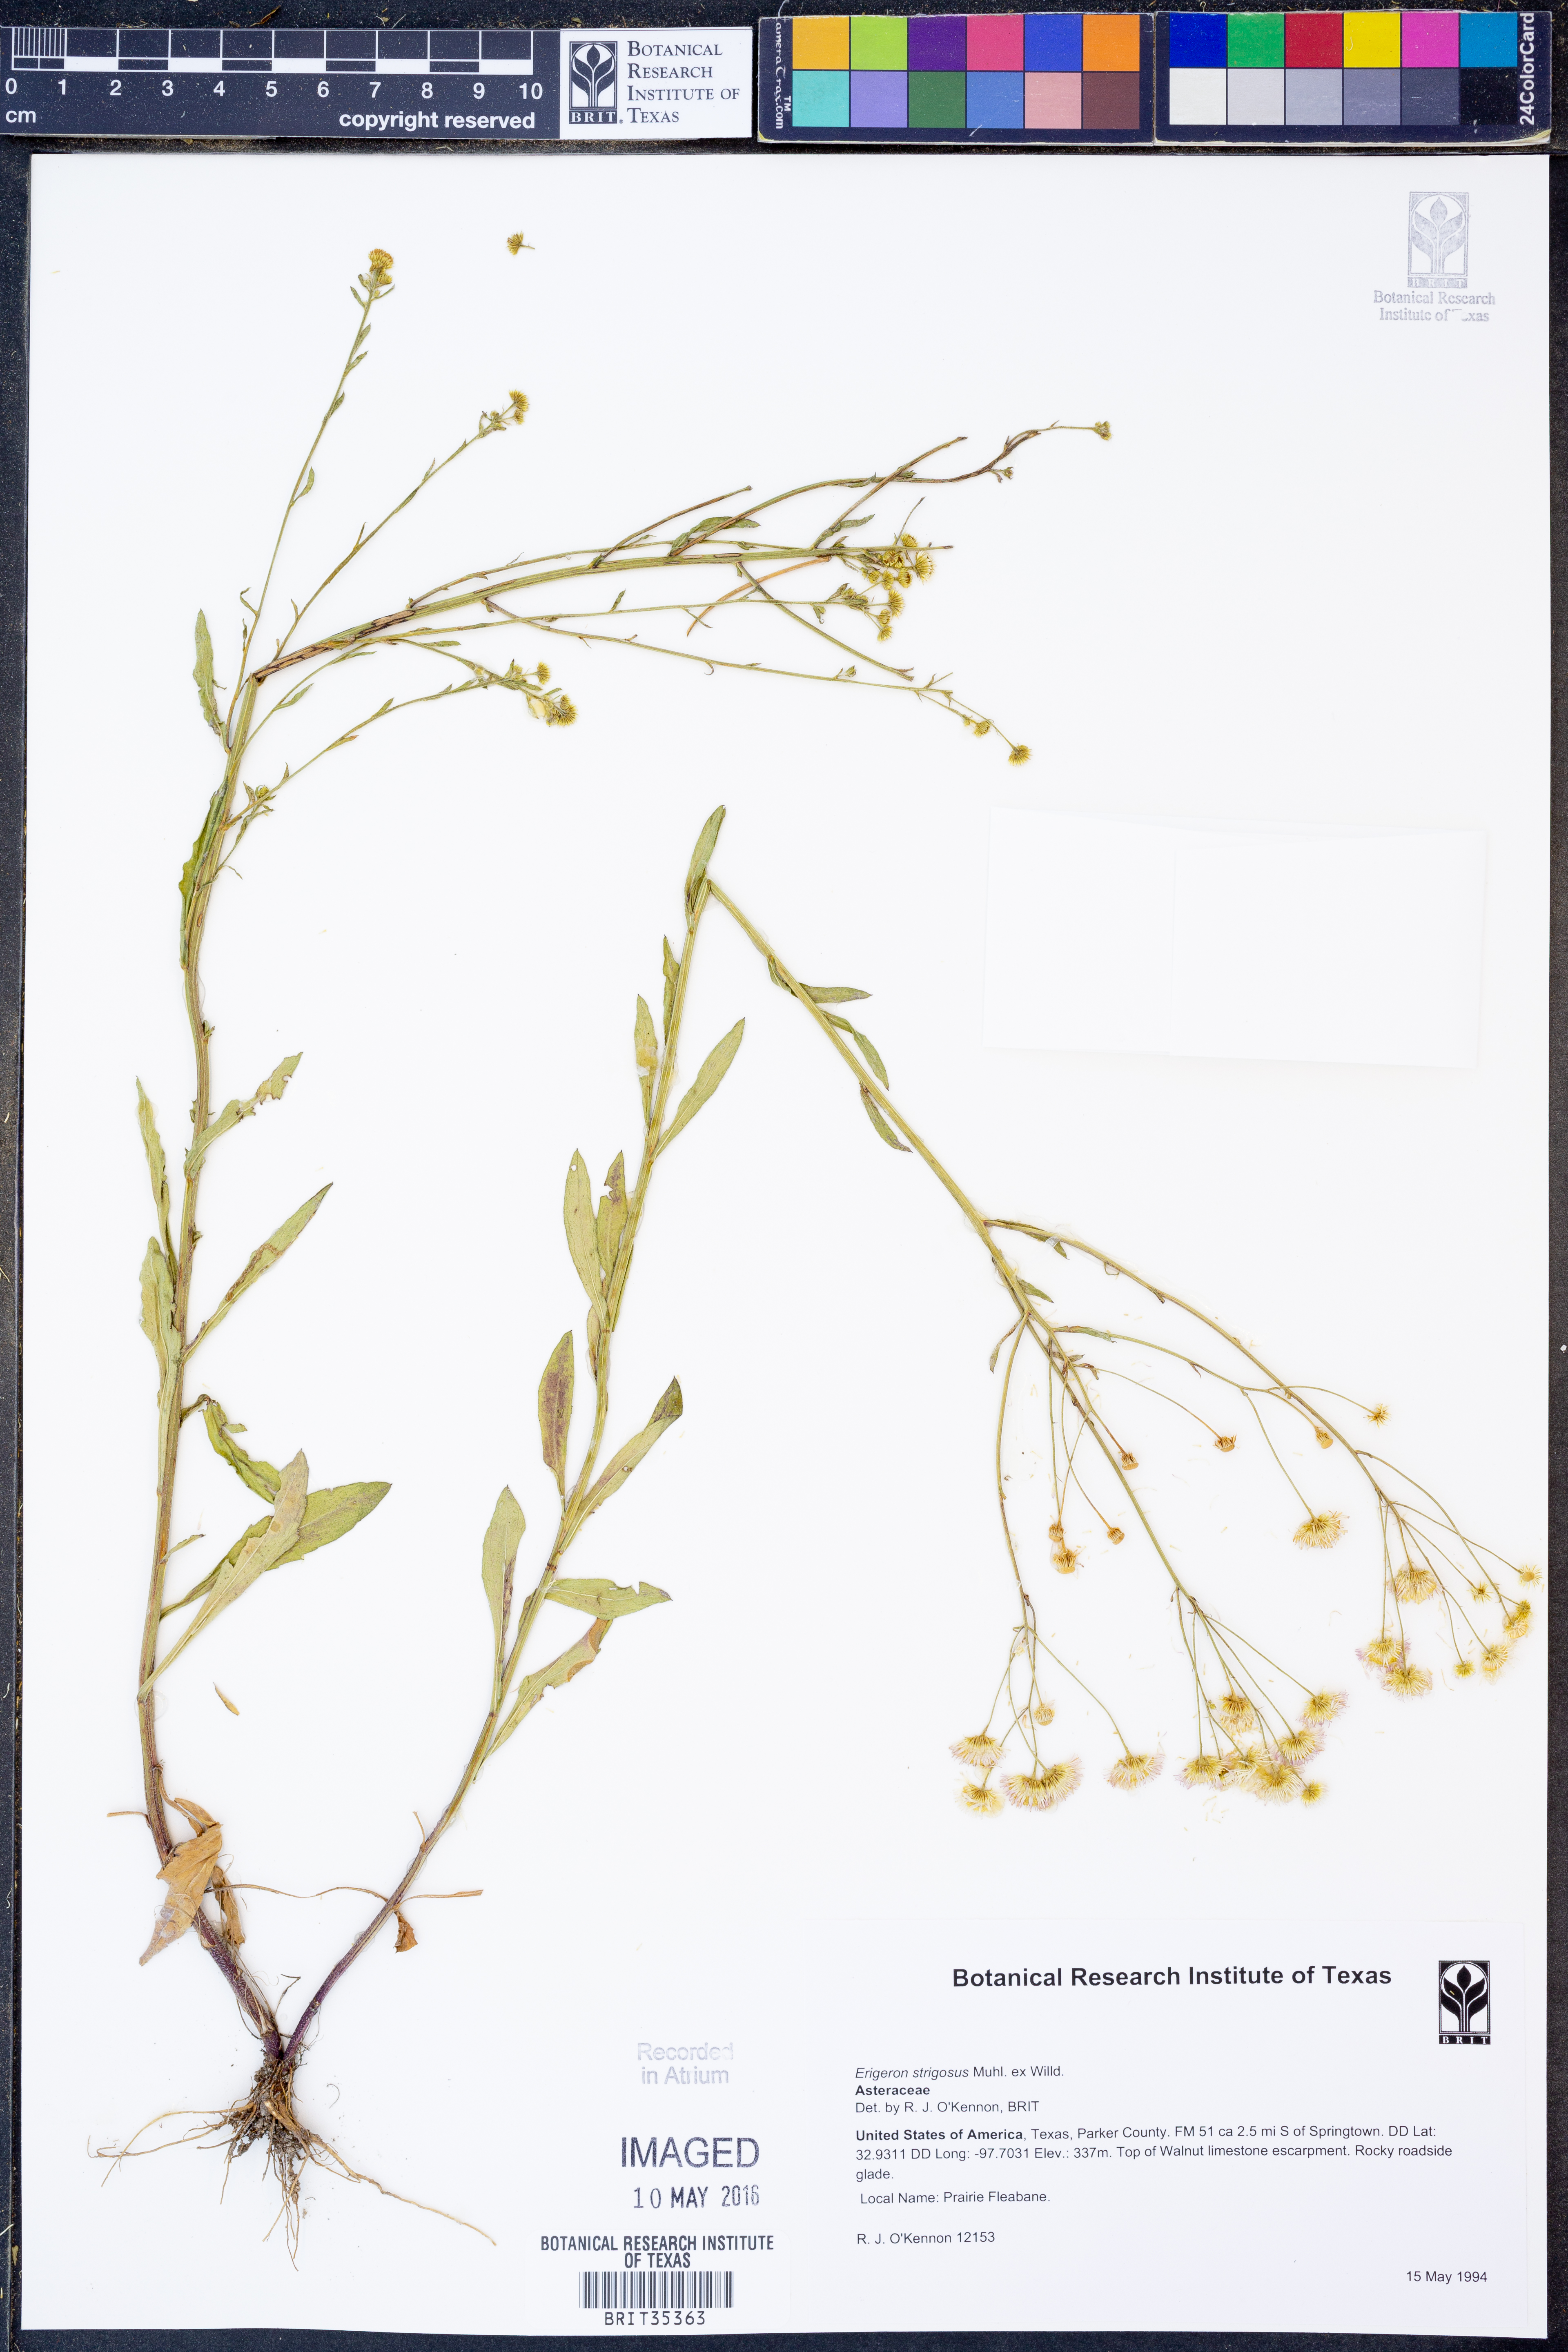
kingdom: Plantae
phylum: Tracheophyta
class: Magnoliopsida
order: Asterales
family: Asteraceae
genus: Erigeron
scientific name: Erigeron strigosus
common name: Common eastern fleabane
